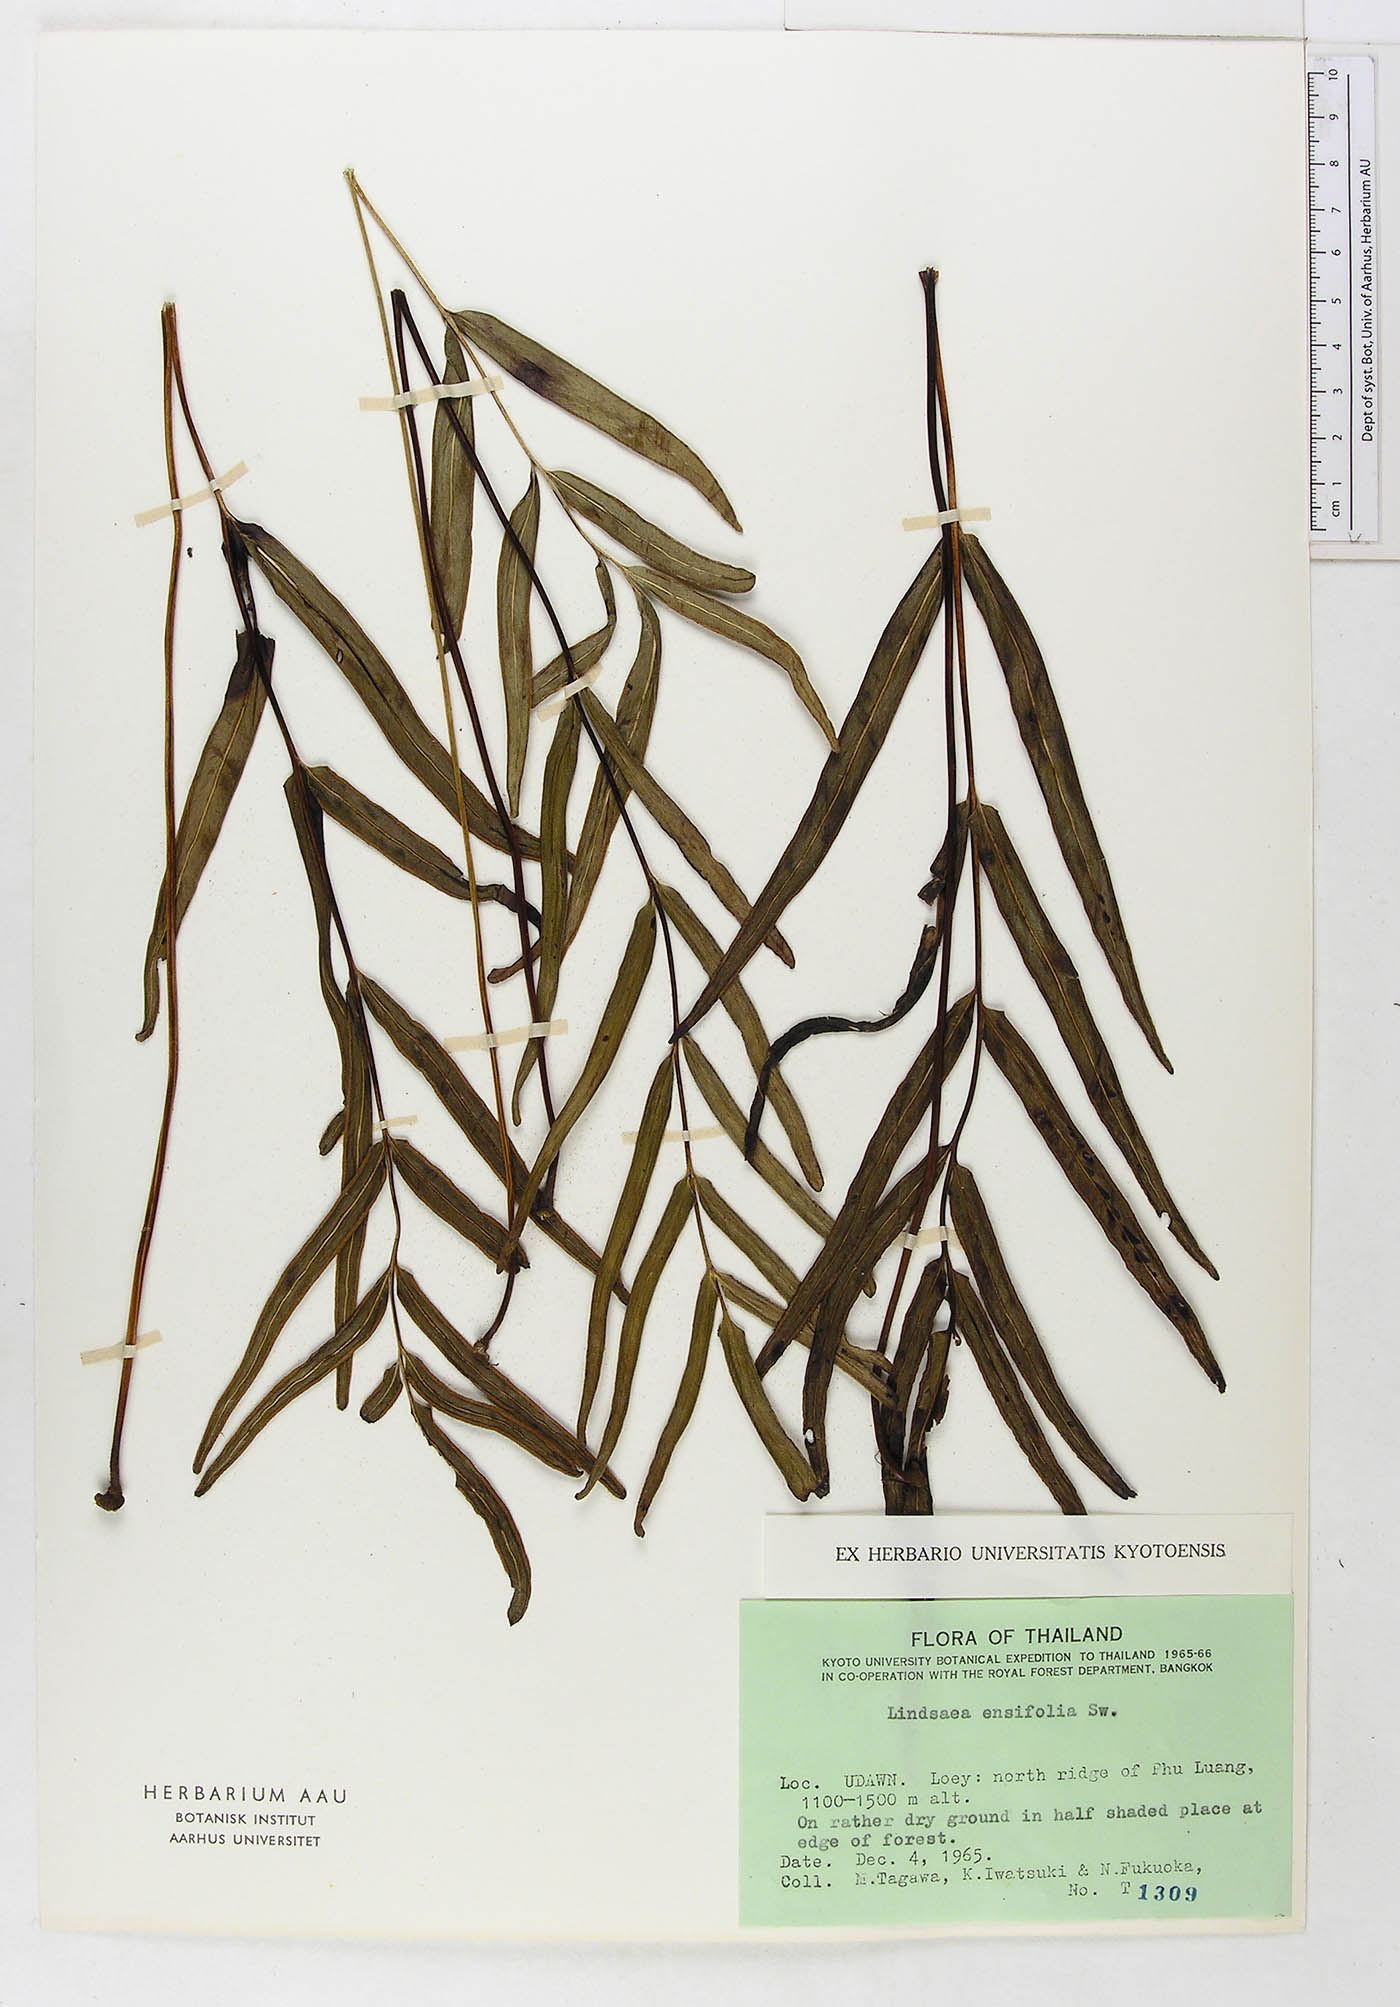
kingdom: Plantae
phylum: Tracheophyta
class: Polypodiopsida
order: Polypodiales
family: Lindsaeaceae
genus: Lindsaea
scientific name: Lindsaea ensifolia
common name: Graceful necklace fern
